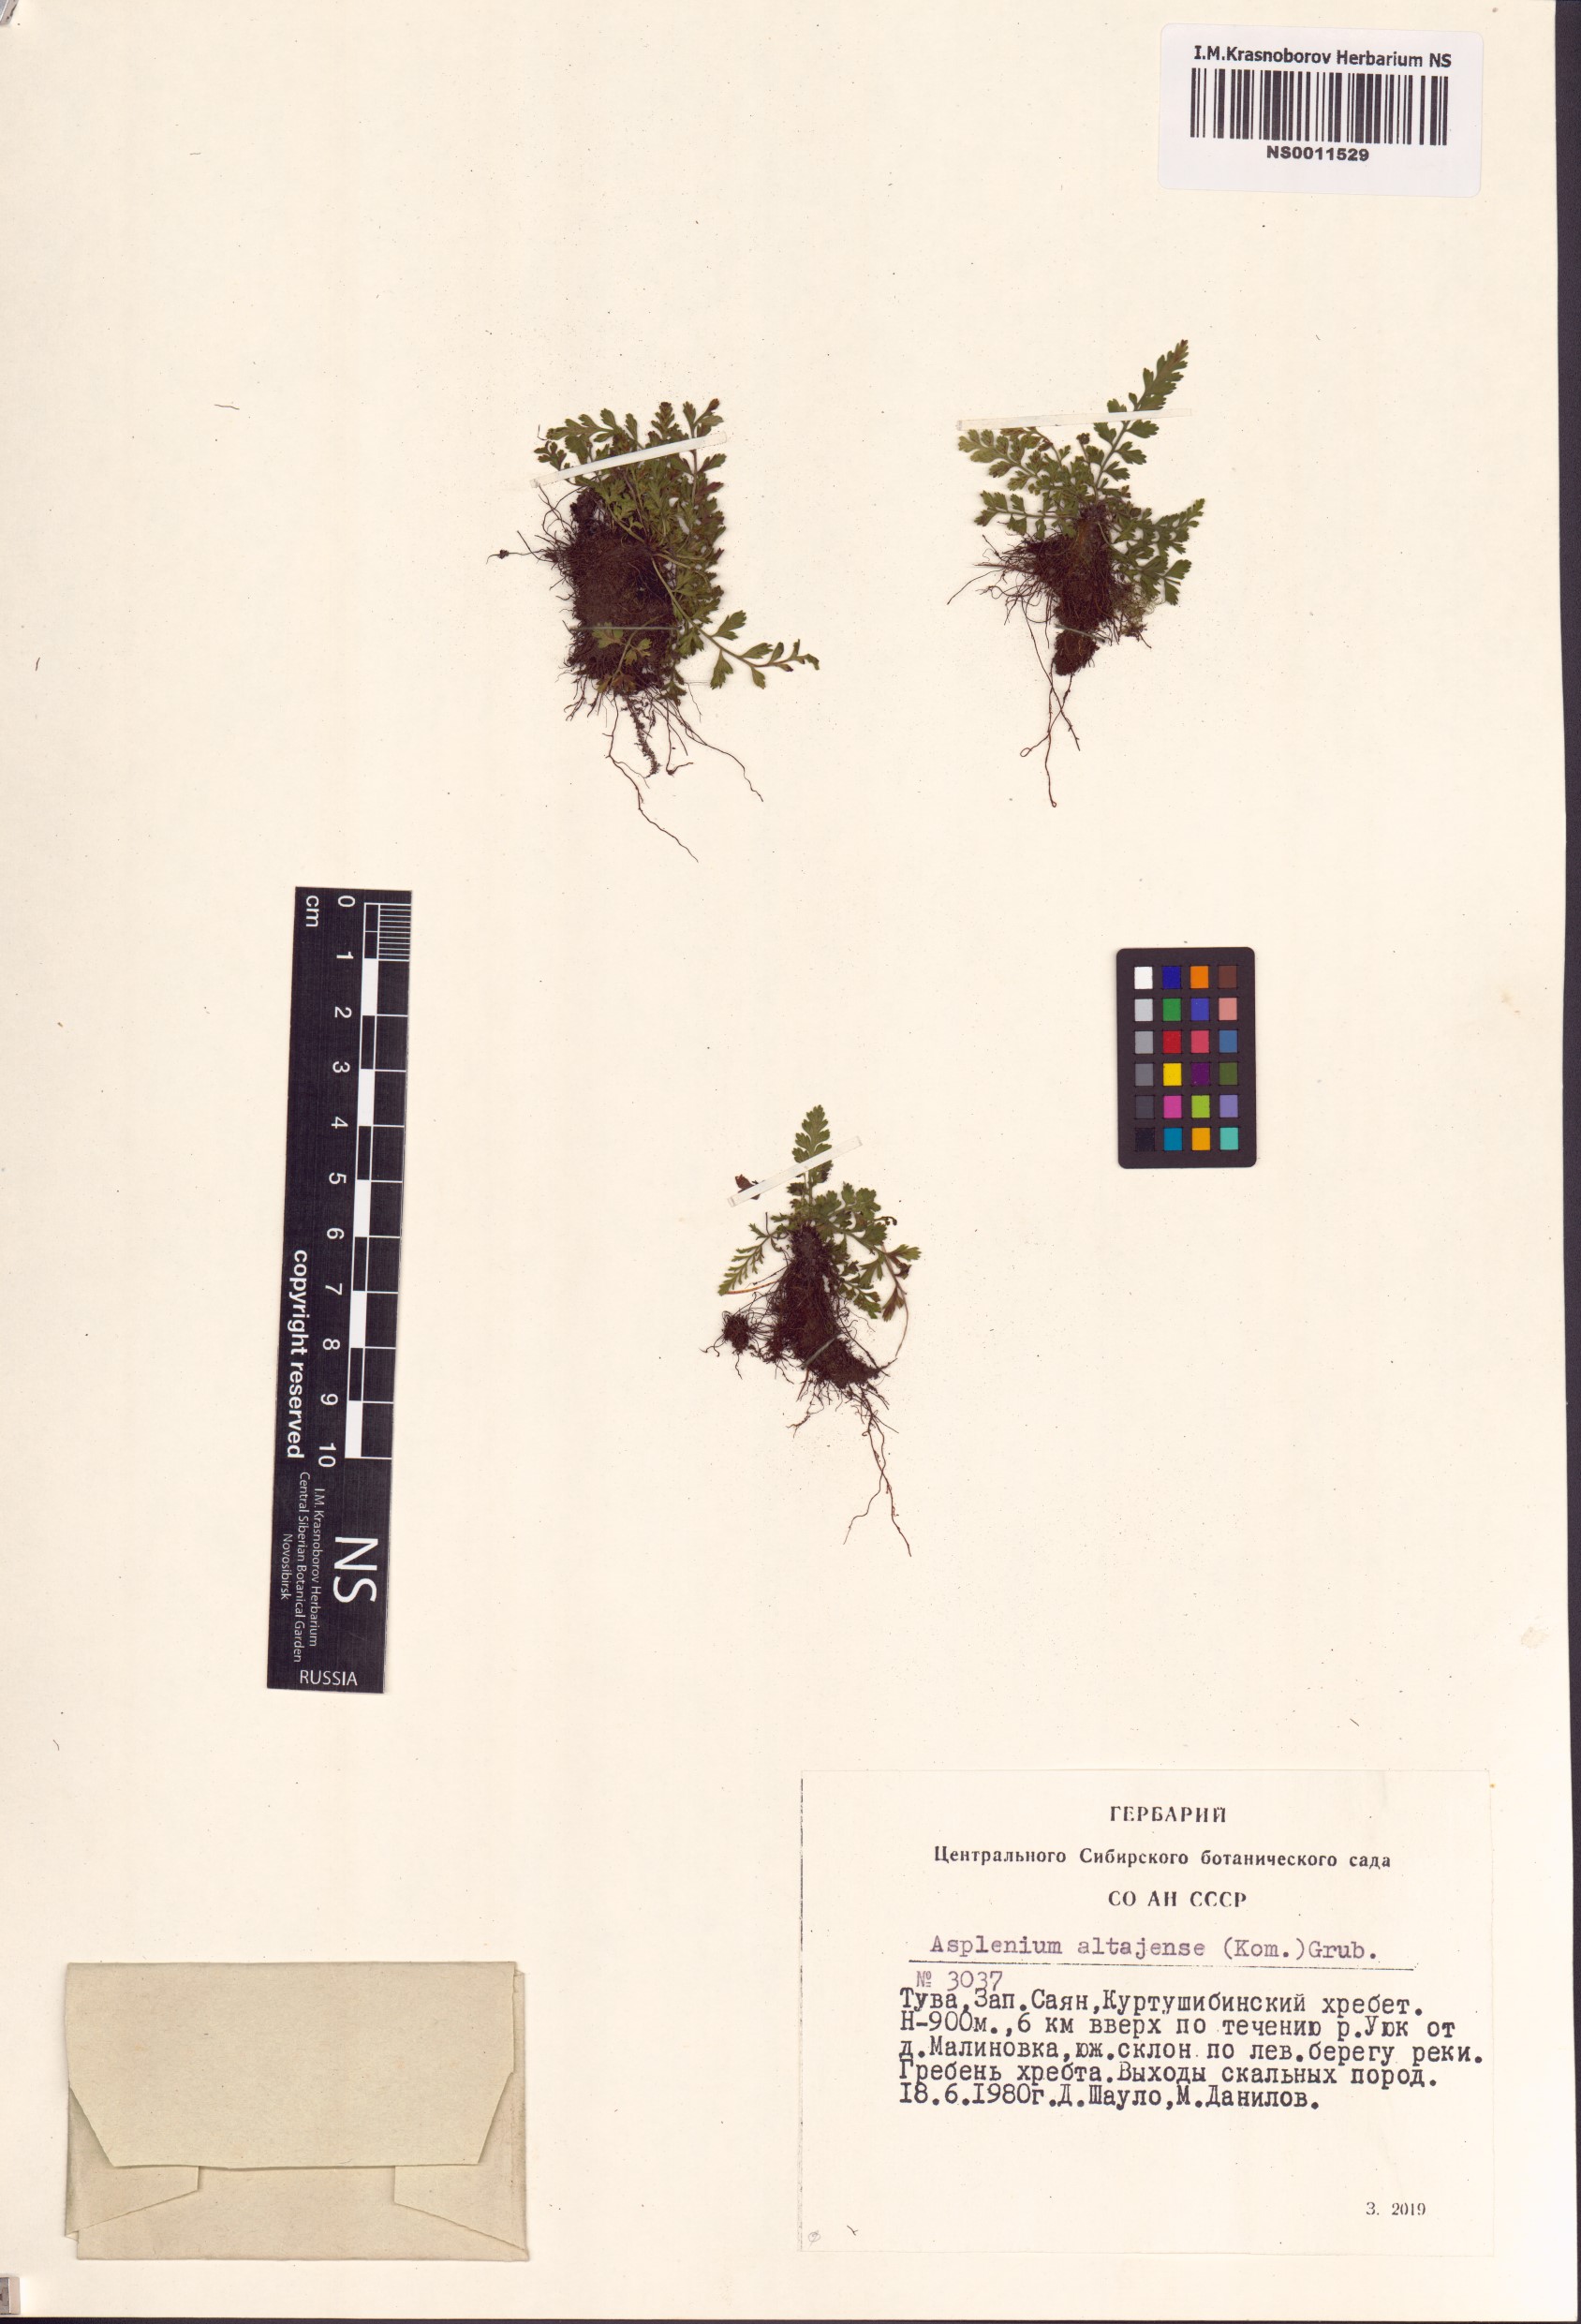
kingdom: Plantae
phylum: Tracheophyta
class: Polypodiopsida
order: Polypodiales
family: Aspleniaceae
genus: Asplenium
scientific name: Asplenium altajense
